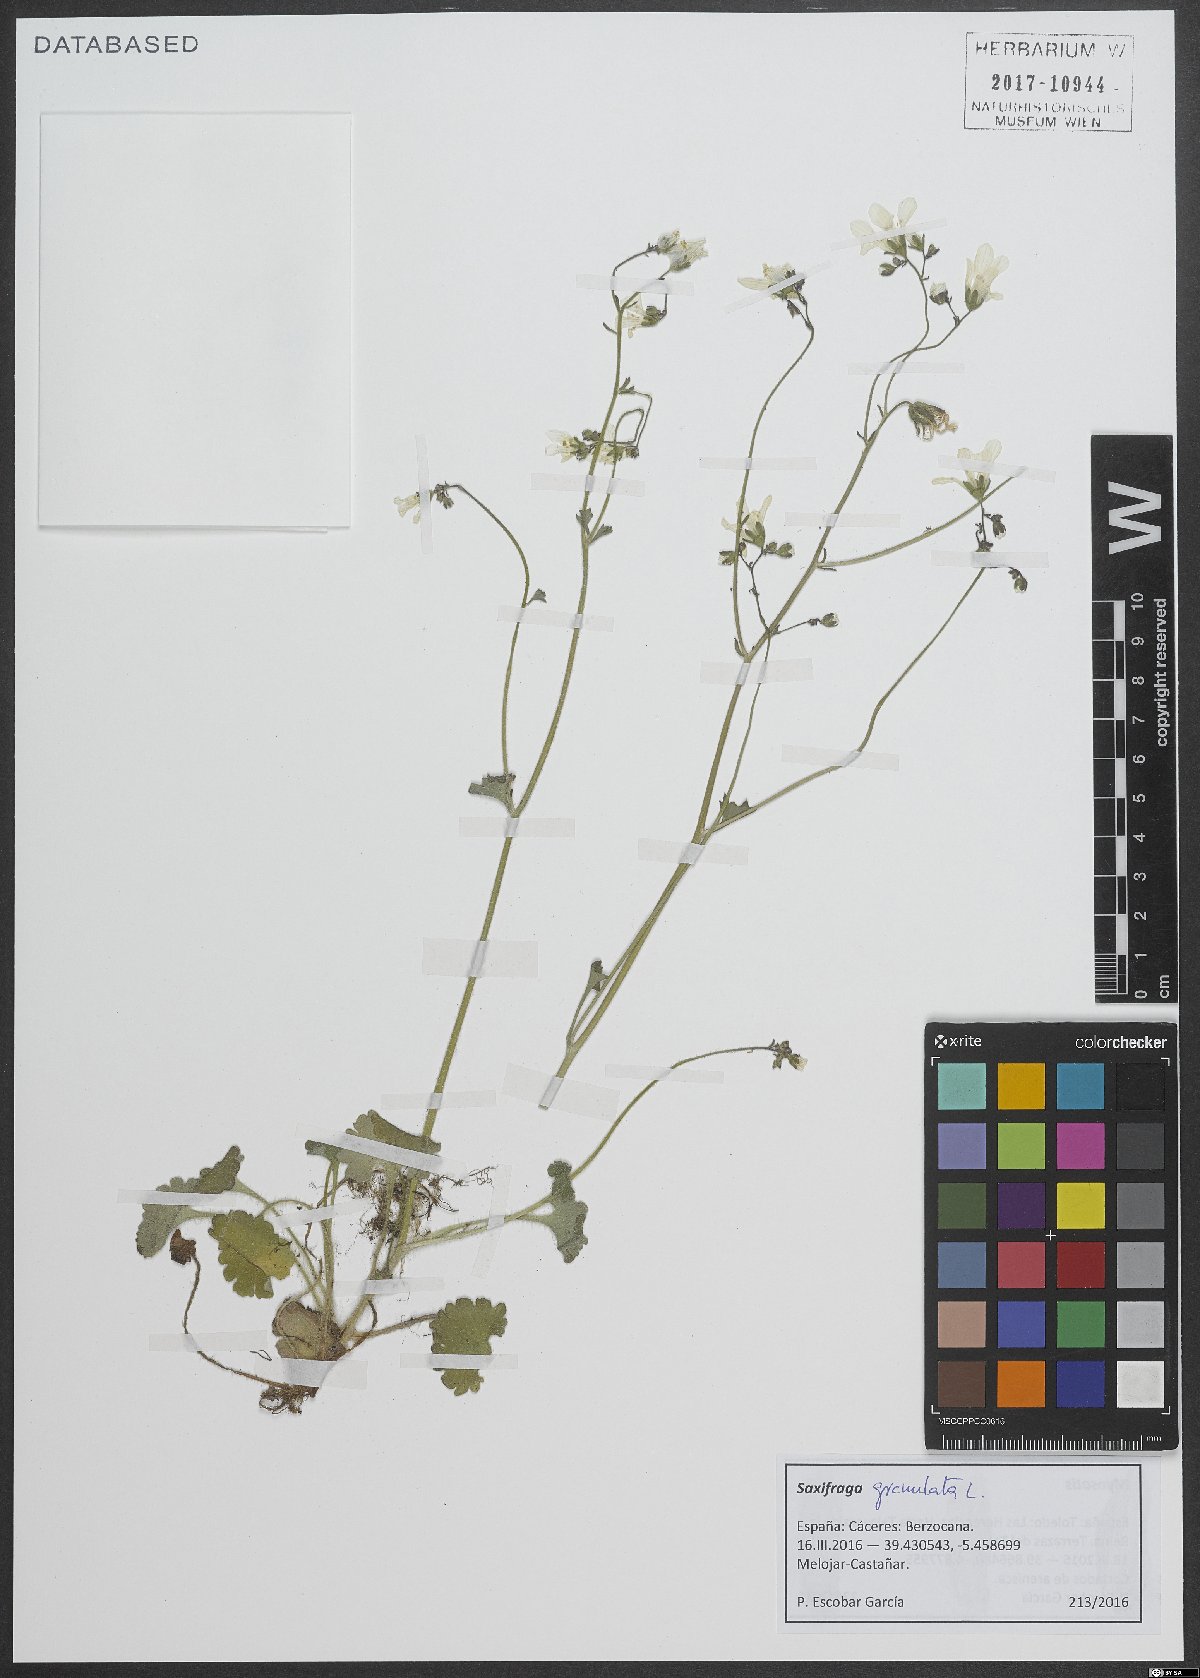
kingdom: Plantae
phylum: Tracheophyta
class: Magnoliopsida
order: Saxifragales
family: Saxifragaceae
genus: Saxifraga
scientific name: Saxifraga granulata
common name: Meadow saxifrage
